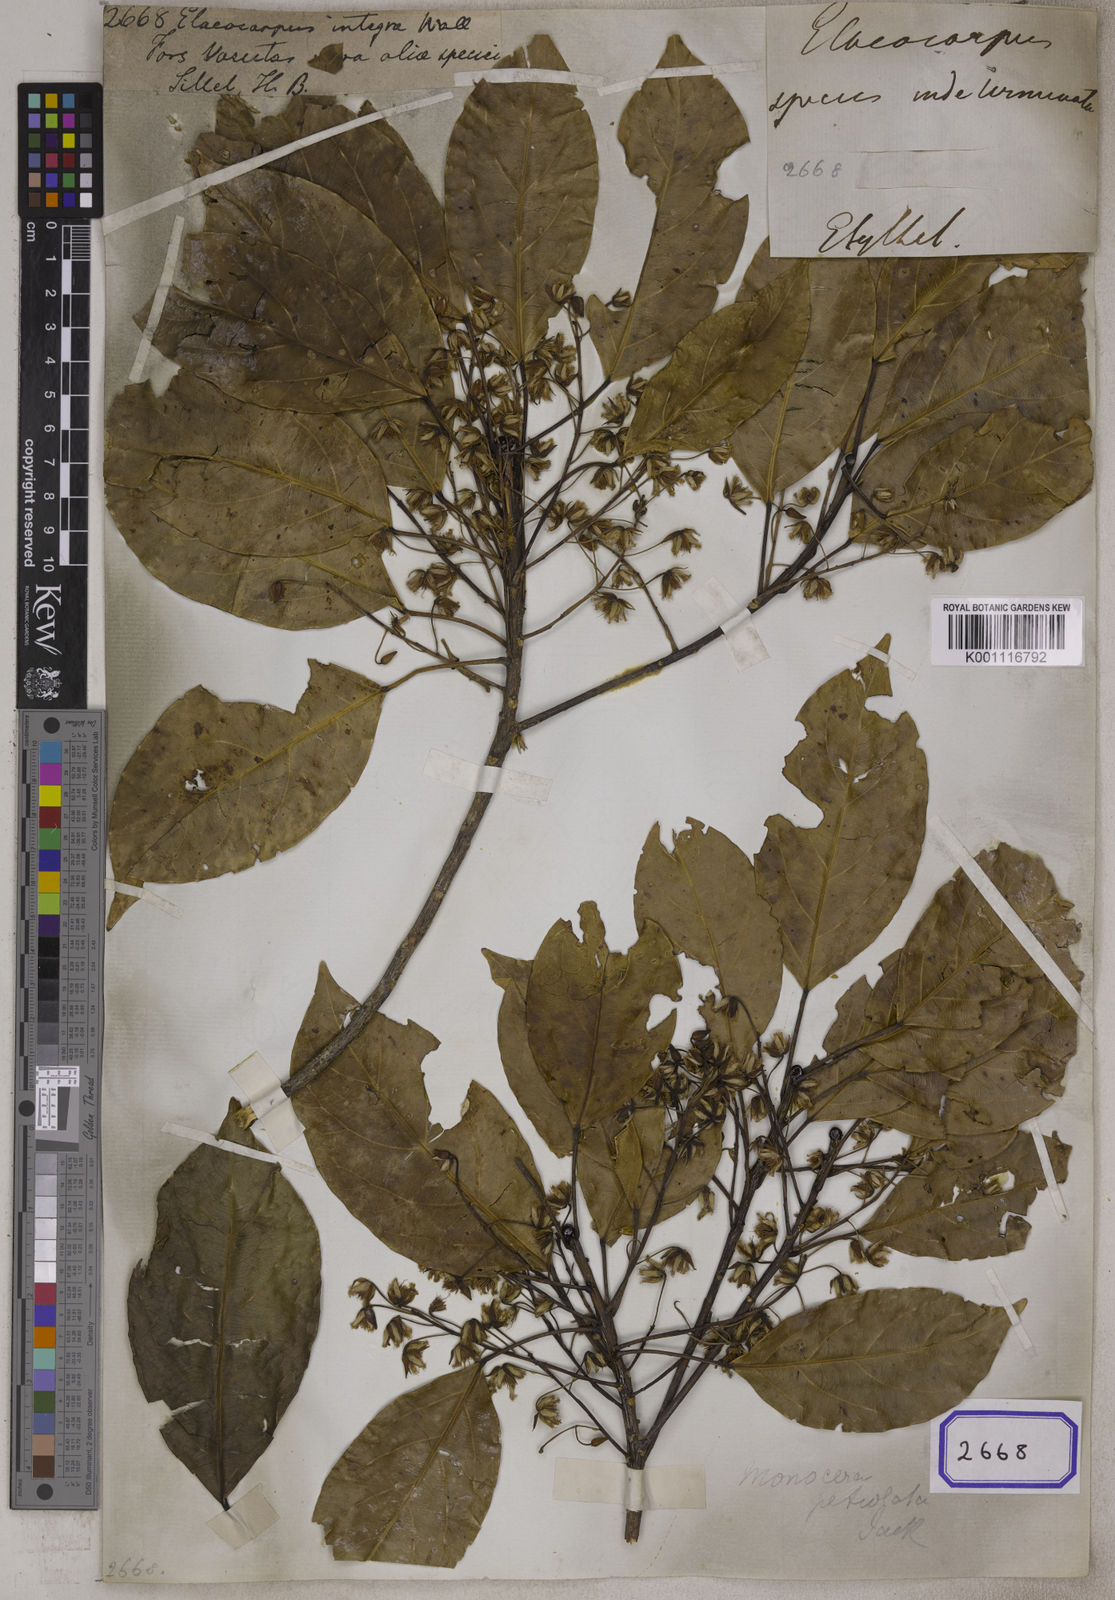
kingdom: Plantae
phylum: Tracheophyta
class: Magnoliopsida
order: Oxalidales
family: Elaeocarpaceae
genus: Elaeocarpus
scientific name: Elaeocarpus
